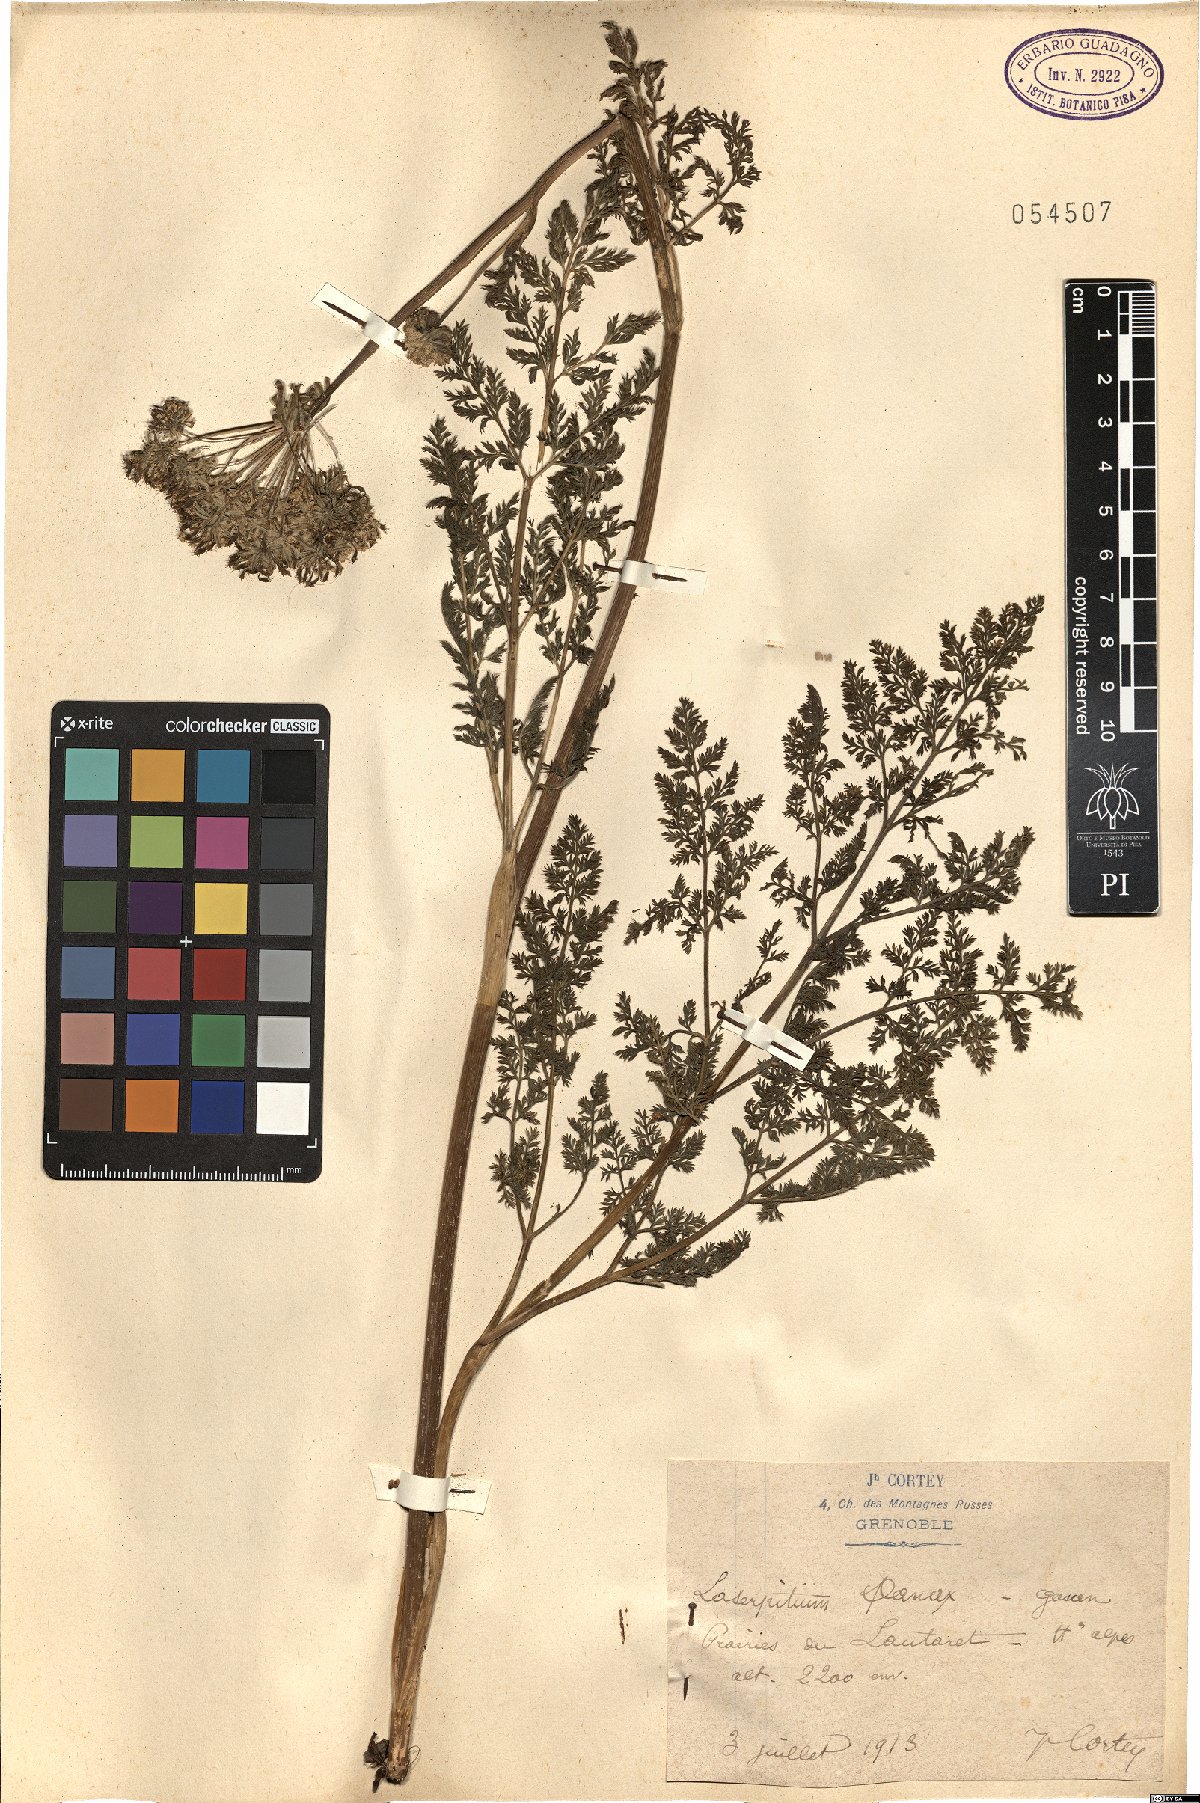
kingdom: Plantae
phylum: Tracheophyta
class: Magnoliopsida
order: Apiales
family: Apiaceae
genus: Laserpitium
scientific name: Laserpitium halleri
